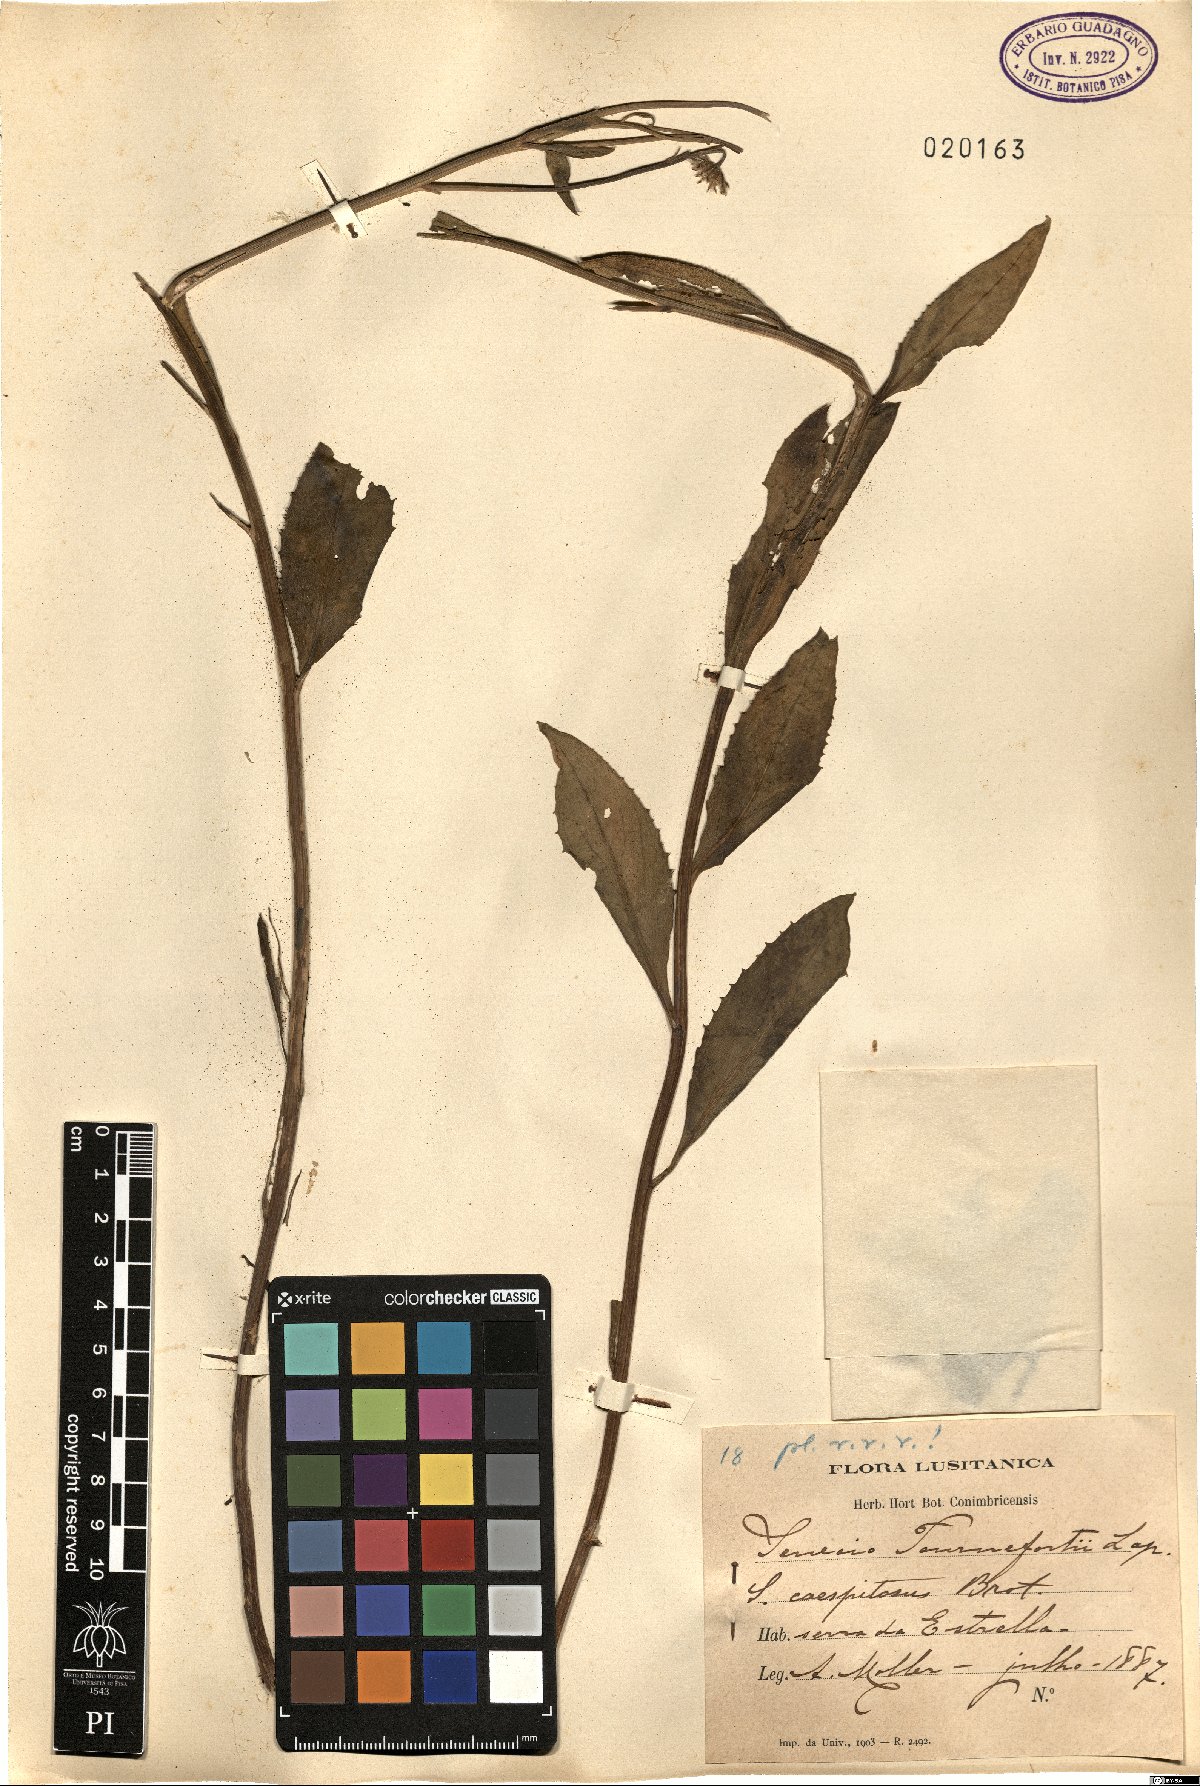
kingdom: Plantae
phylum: Tracheophyta
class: Magnoliopsida
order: Asterales
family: Asteraceae
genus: Senecio
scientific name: Senecio pyrenaicus
